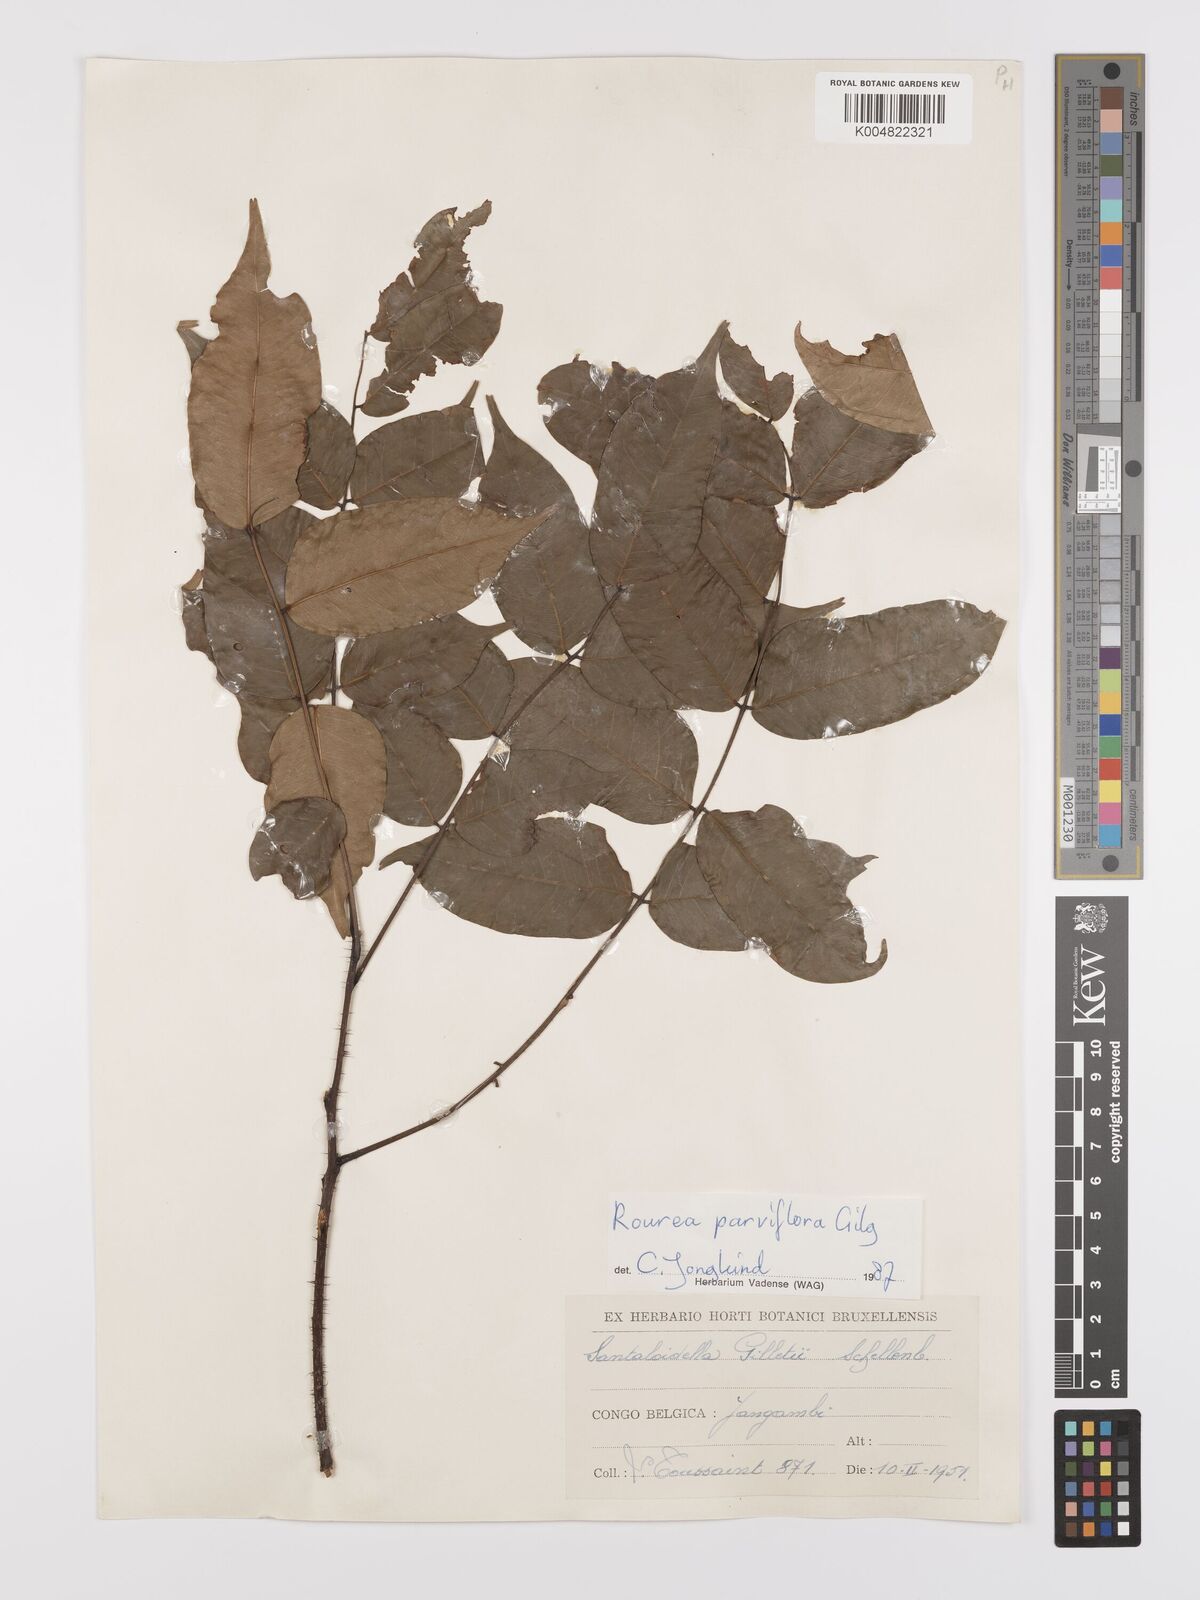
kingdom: Plantae
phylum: Tracheophyta
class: Magnoliopsida
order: Oxalidales
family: Connaraceae
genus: Rourea
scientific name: Rourea
